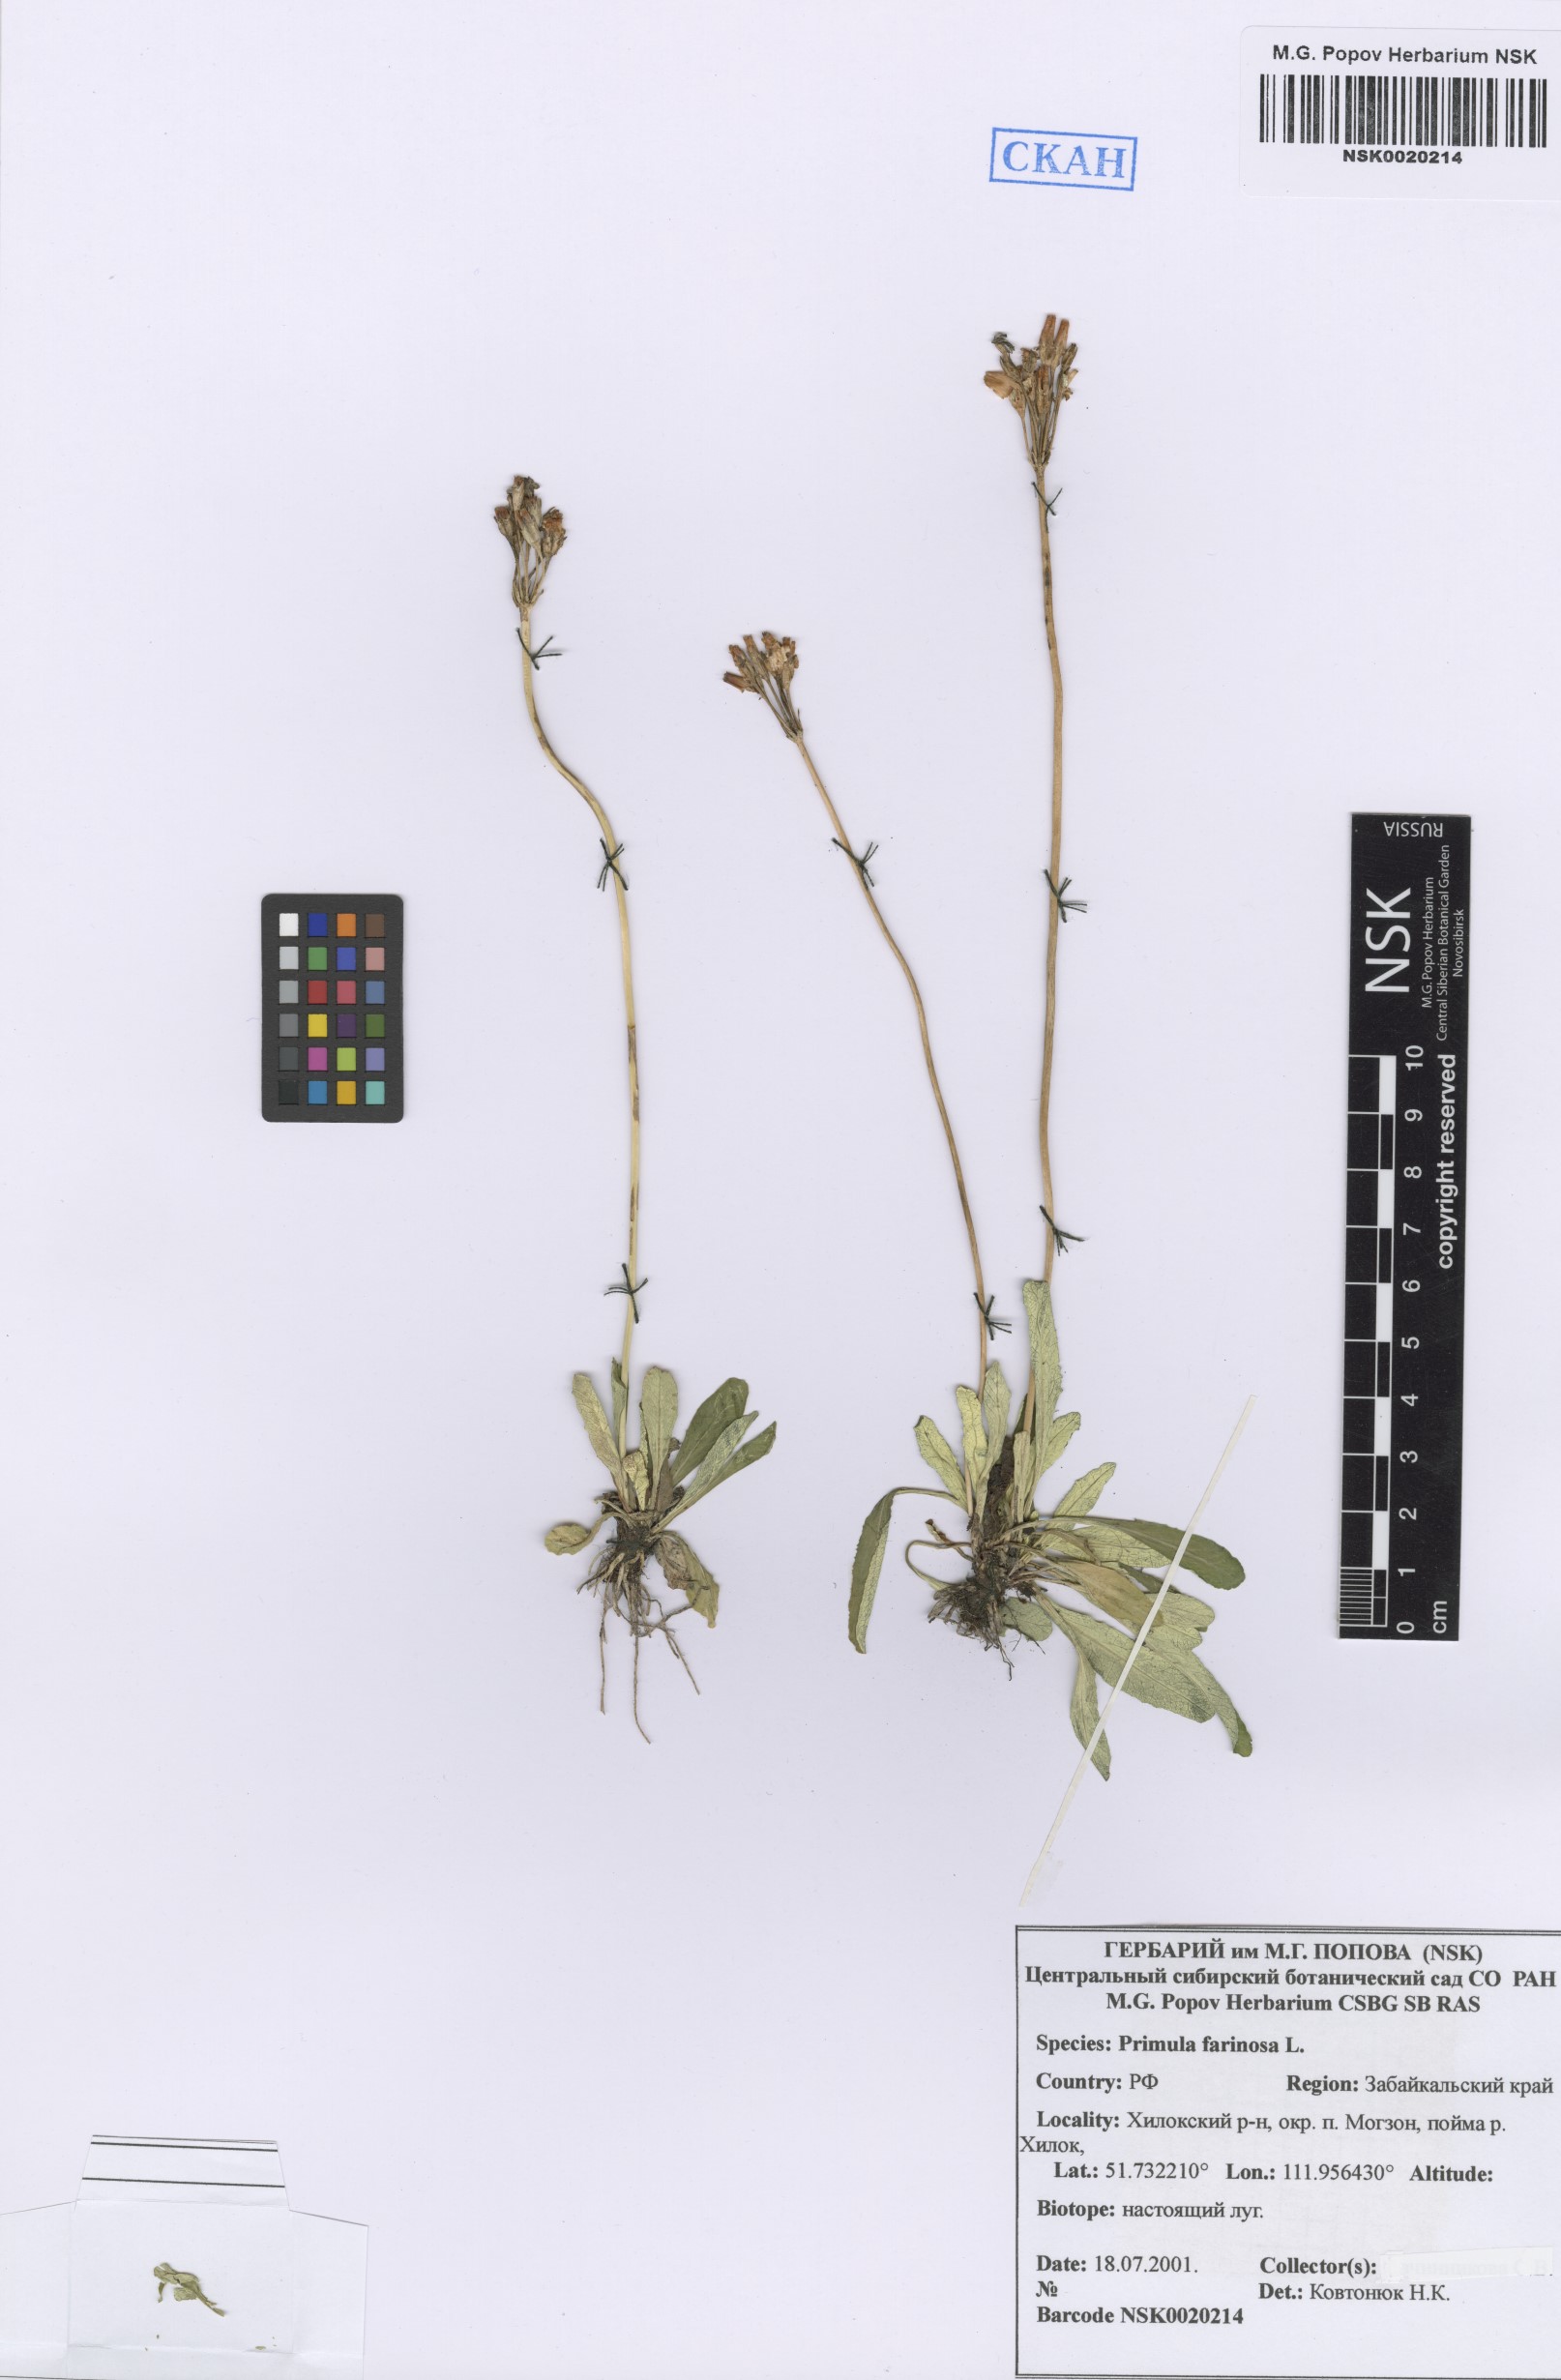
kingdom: Plantae
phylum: Tracheophyta
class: Magnoliopsida
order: Ericales
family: Primulaceae
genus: Primula
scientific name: Primula farinosa
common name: Bird's-eye primrose
